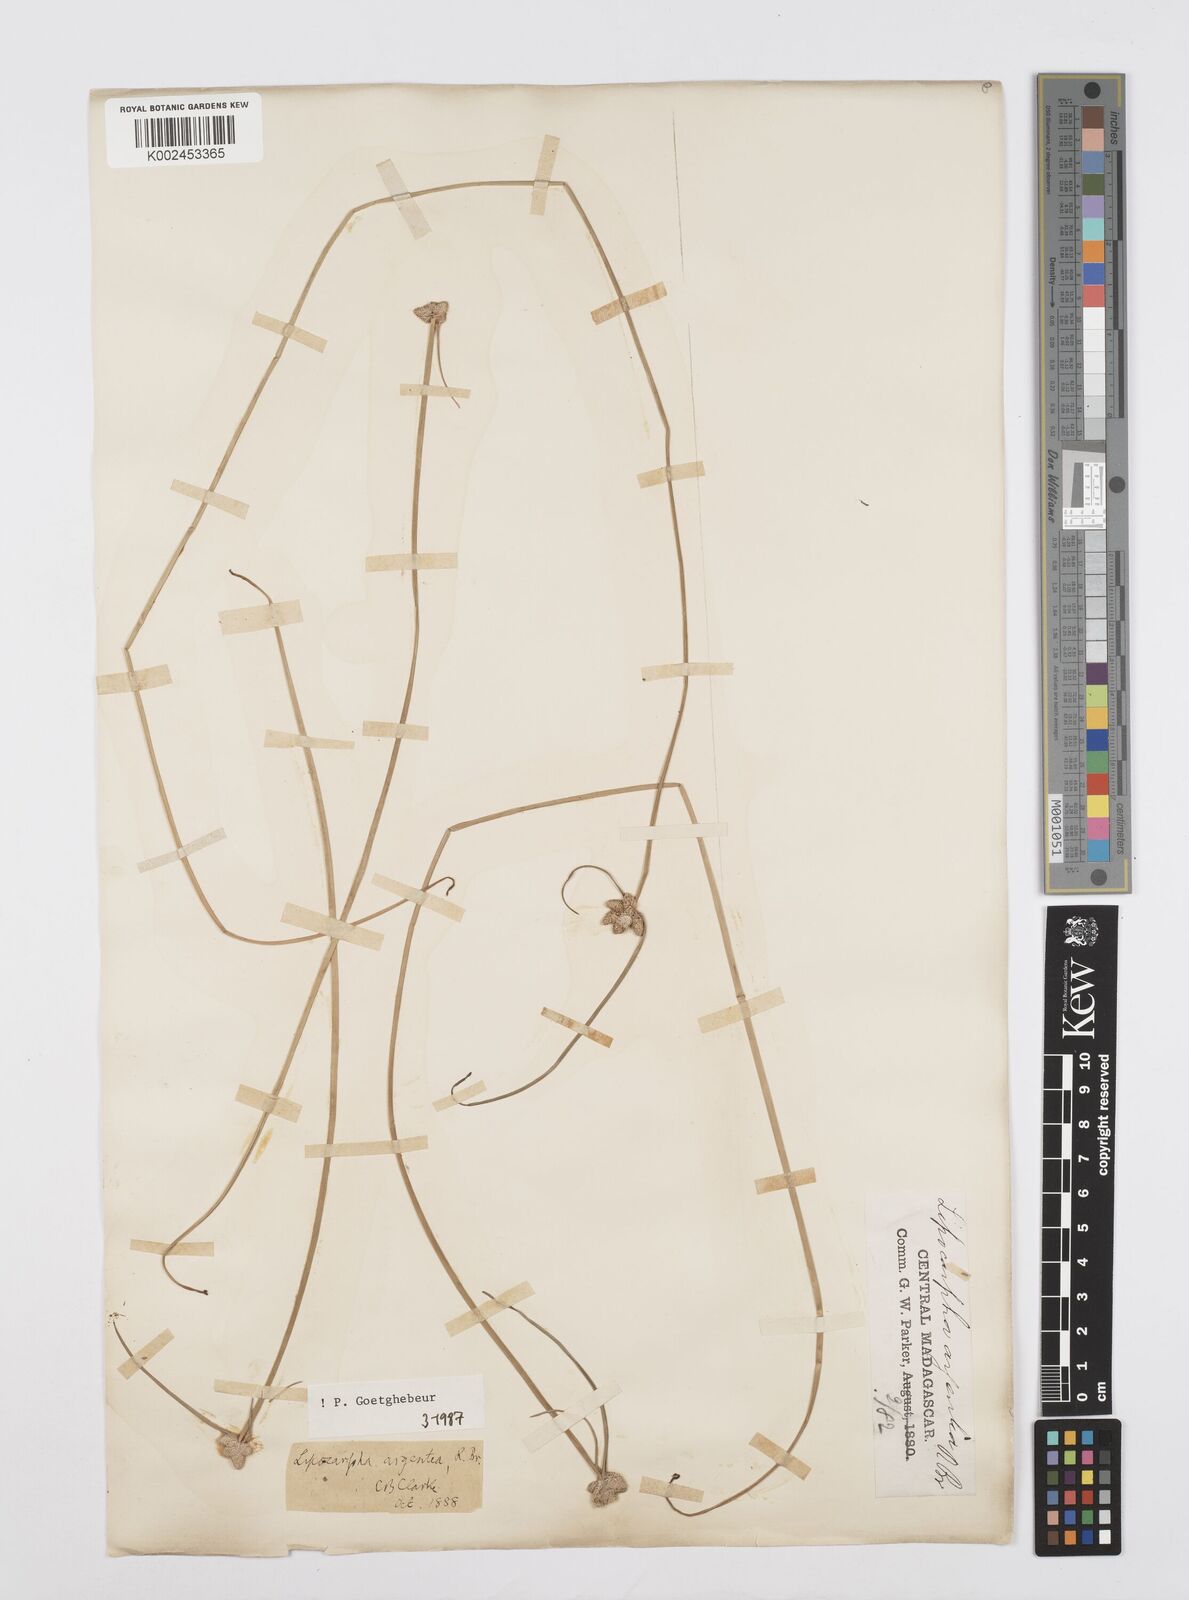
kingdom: Plantae
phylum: Tracheophyta
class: Liliopsida
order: Poales
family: Cyperaceae
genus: Cyperus
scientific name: Cyperus
